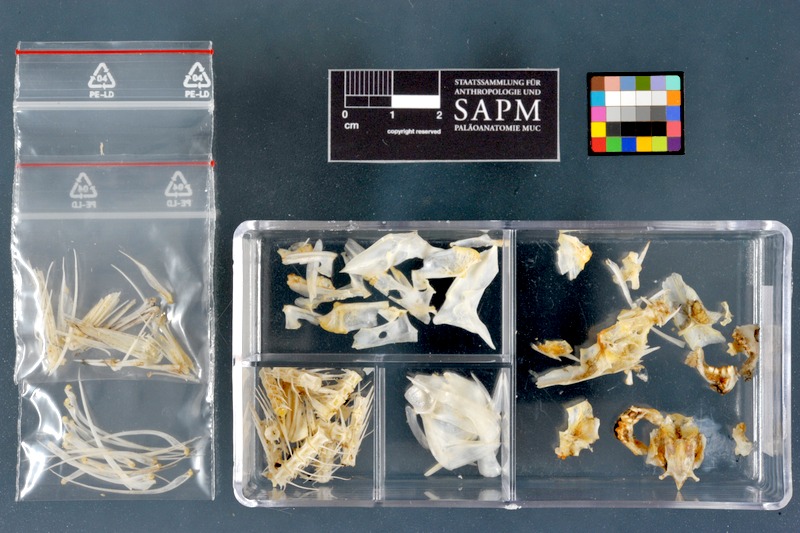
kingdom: Animalia
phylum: Chordata
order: Characiformes
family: Alestidae
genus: Alestes
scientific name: Alestes baremoze
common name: Characin
